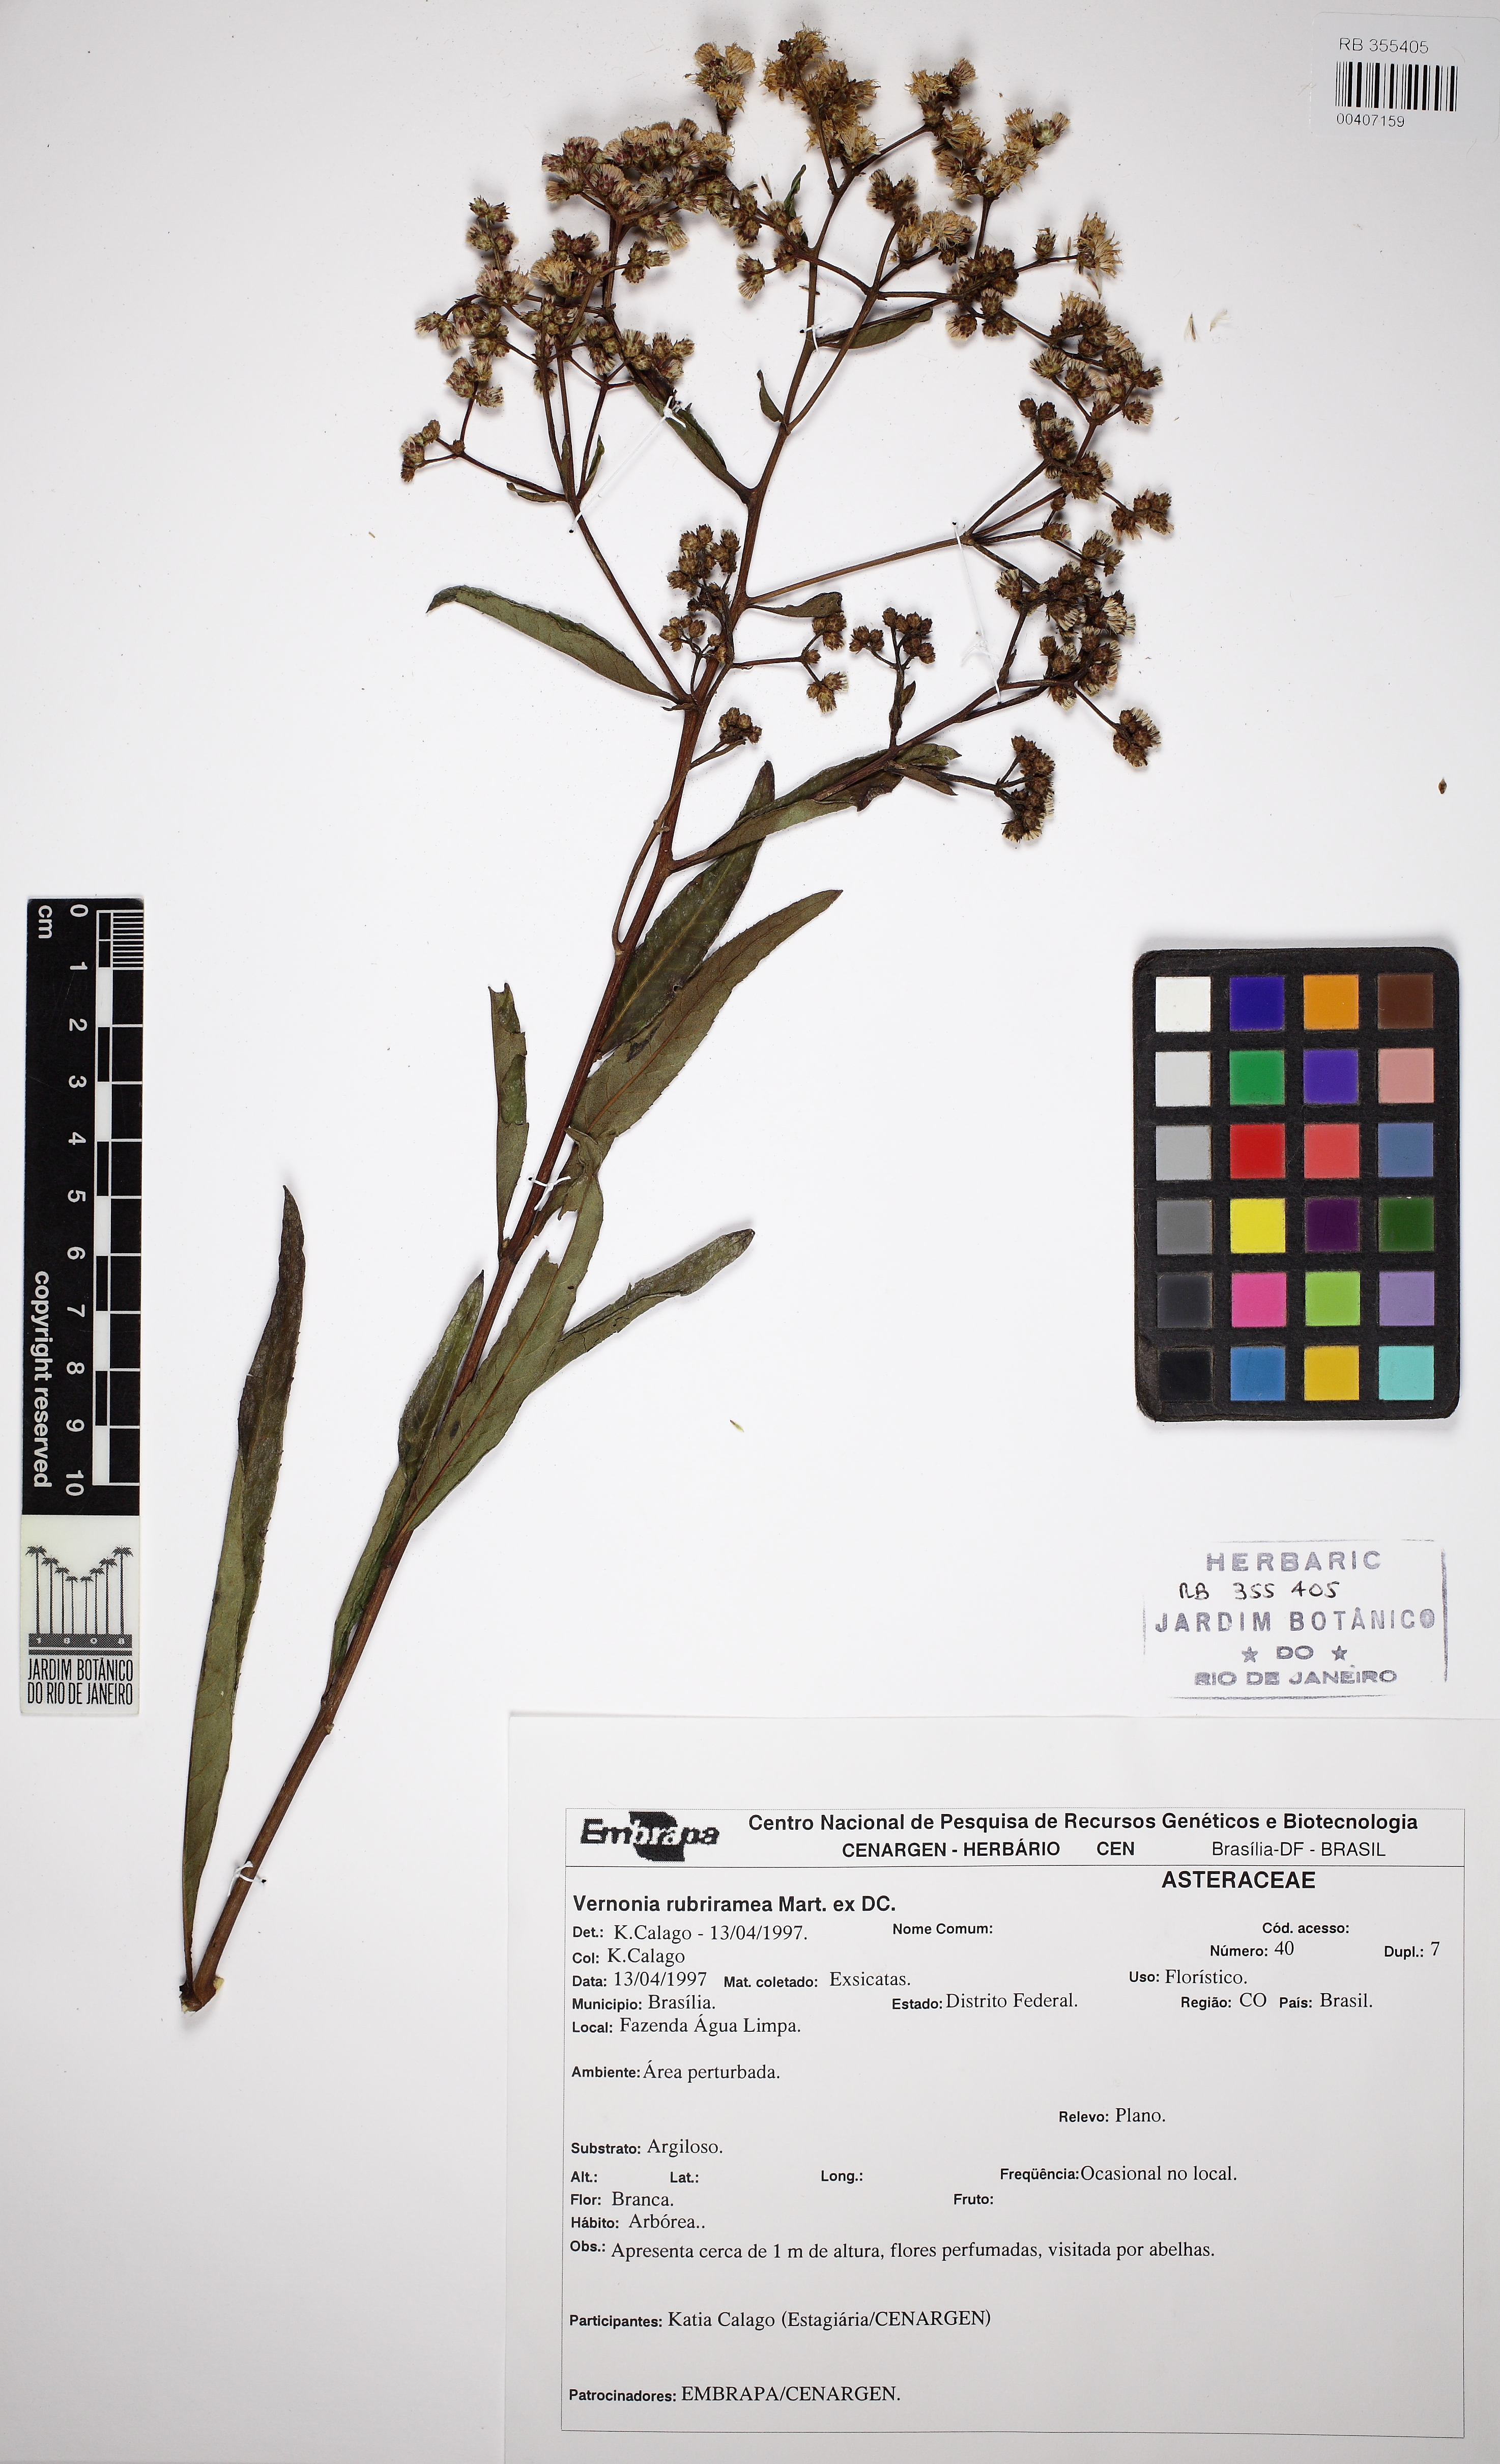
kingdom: Plantae
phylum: Tracheophyta
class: Magnoliopsida
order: Asterales
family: Asteraceae
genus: Vernonanthura
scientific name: Vernonanthura rubriramea
